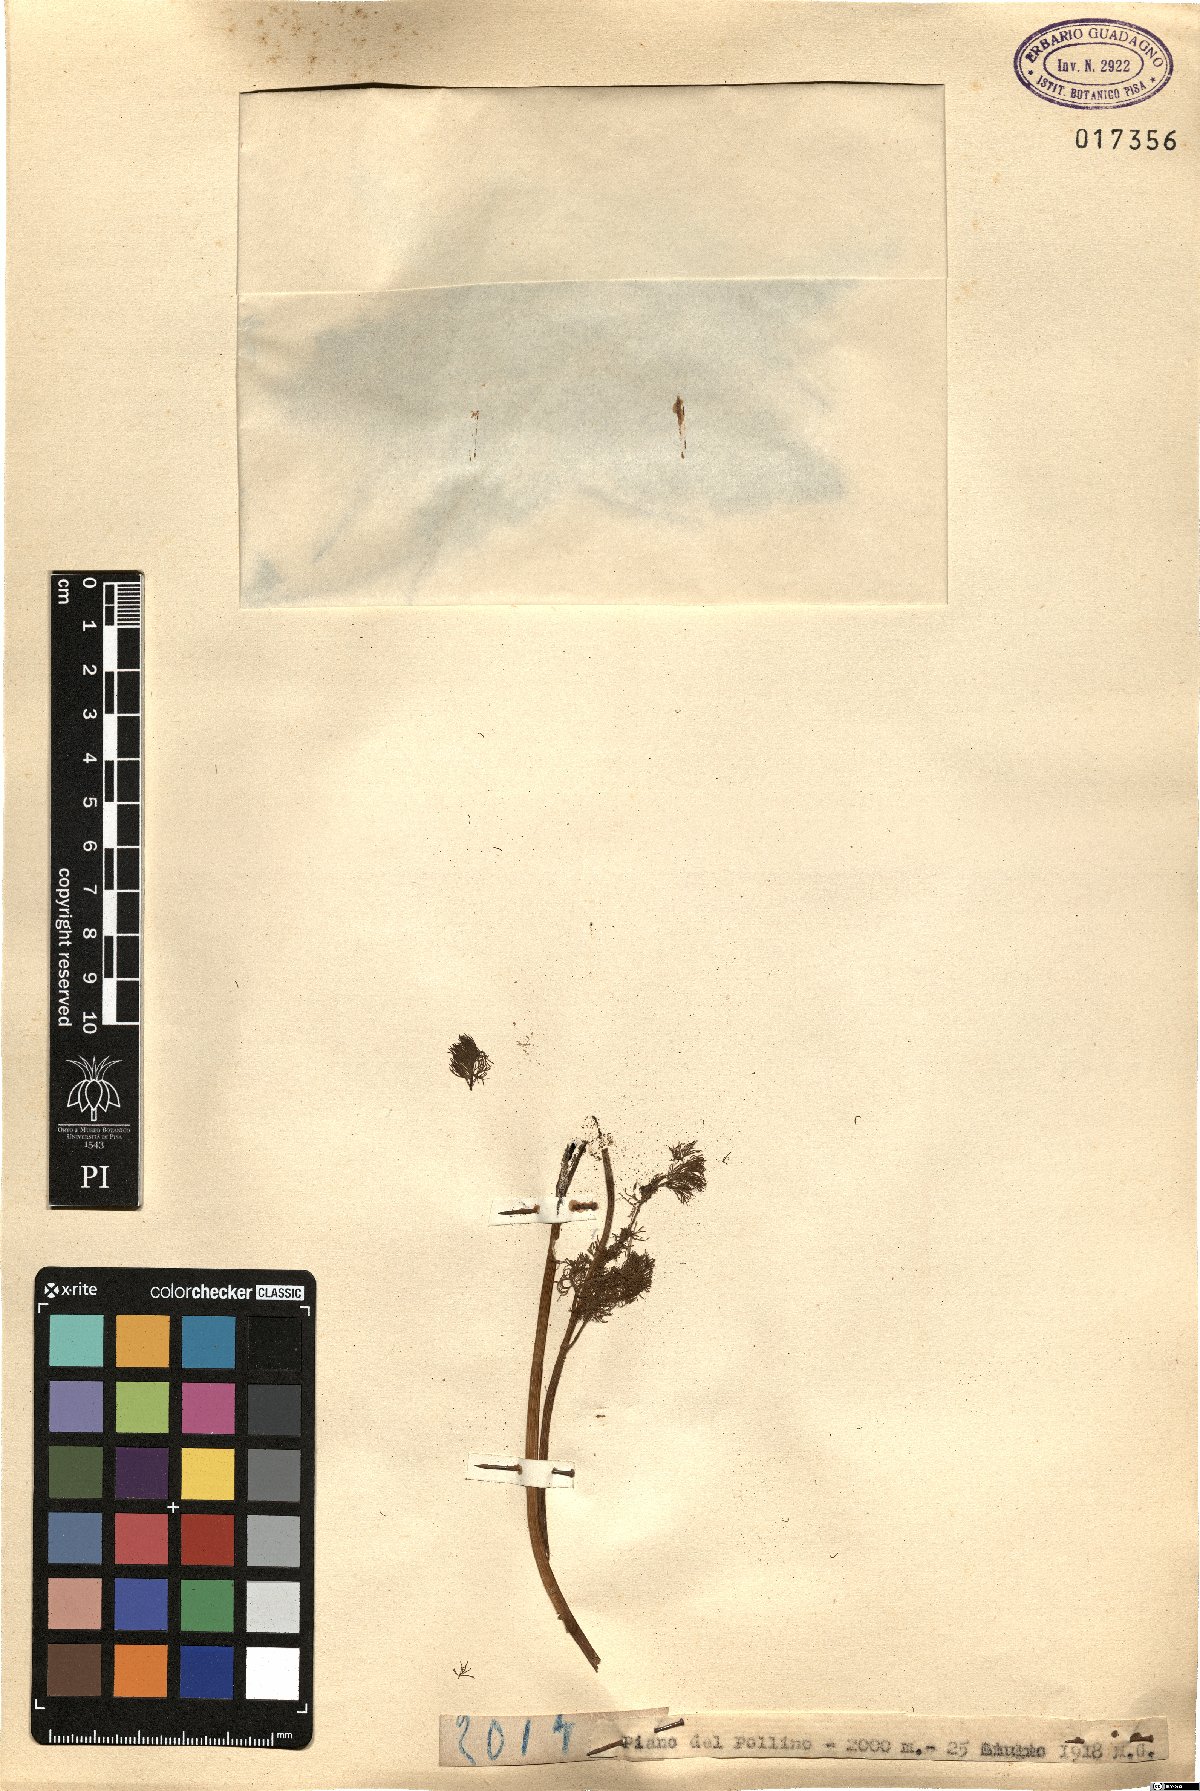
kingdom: Plantae
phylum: Tracheophyta
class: Magnoliopsida
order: Apiales
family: Apiaceae
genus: Meum
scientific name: Meum
